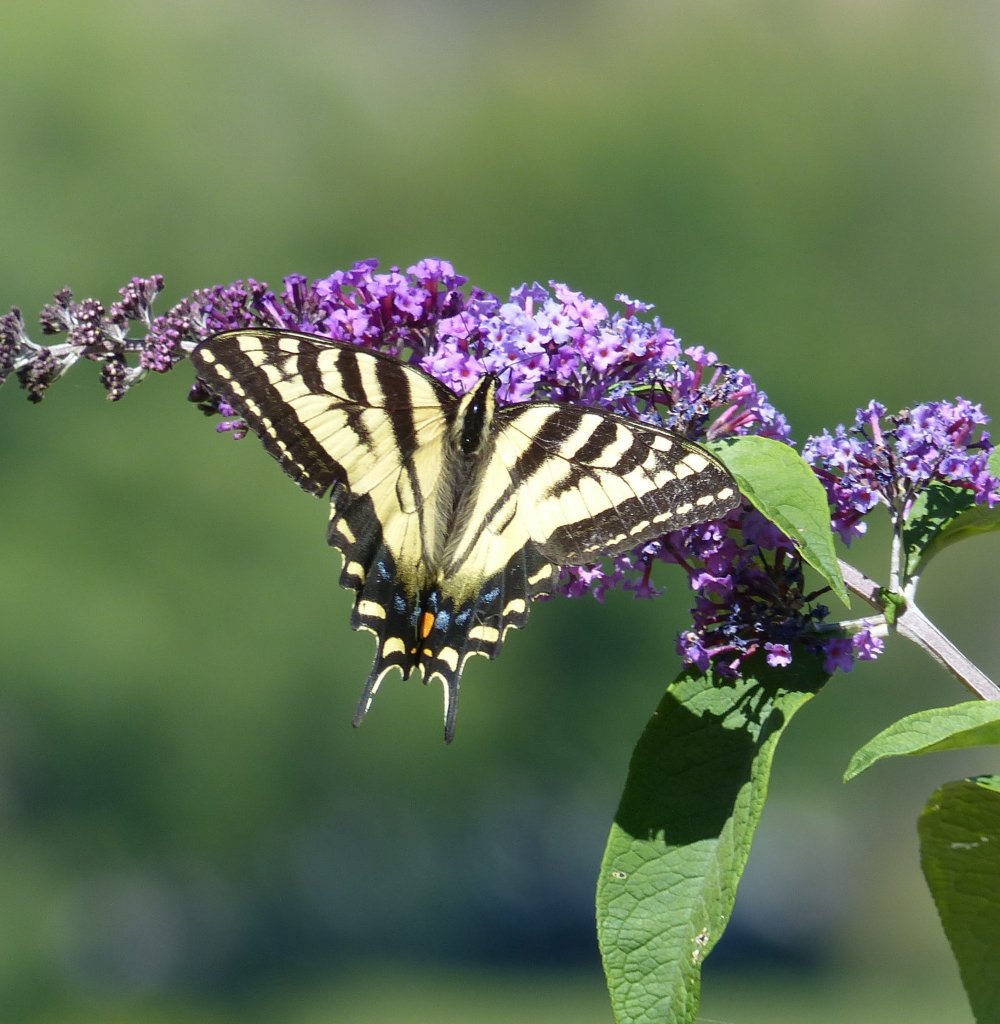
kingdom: Animalia
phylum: Arthropoda
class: Insecta
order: Lepidoptera
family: Papilionidae
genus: Pterourus
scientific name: Pterourus rutulus
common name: Western Tiger Swallowtail
